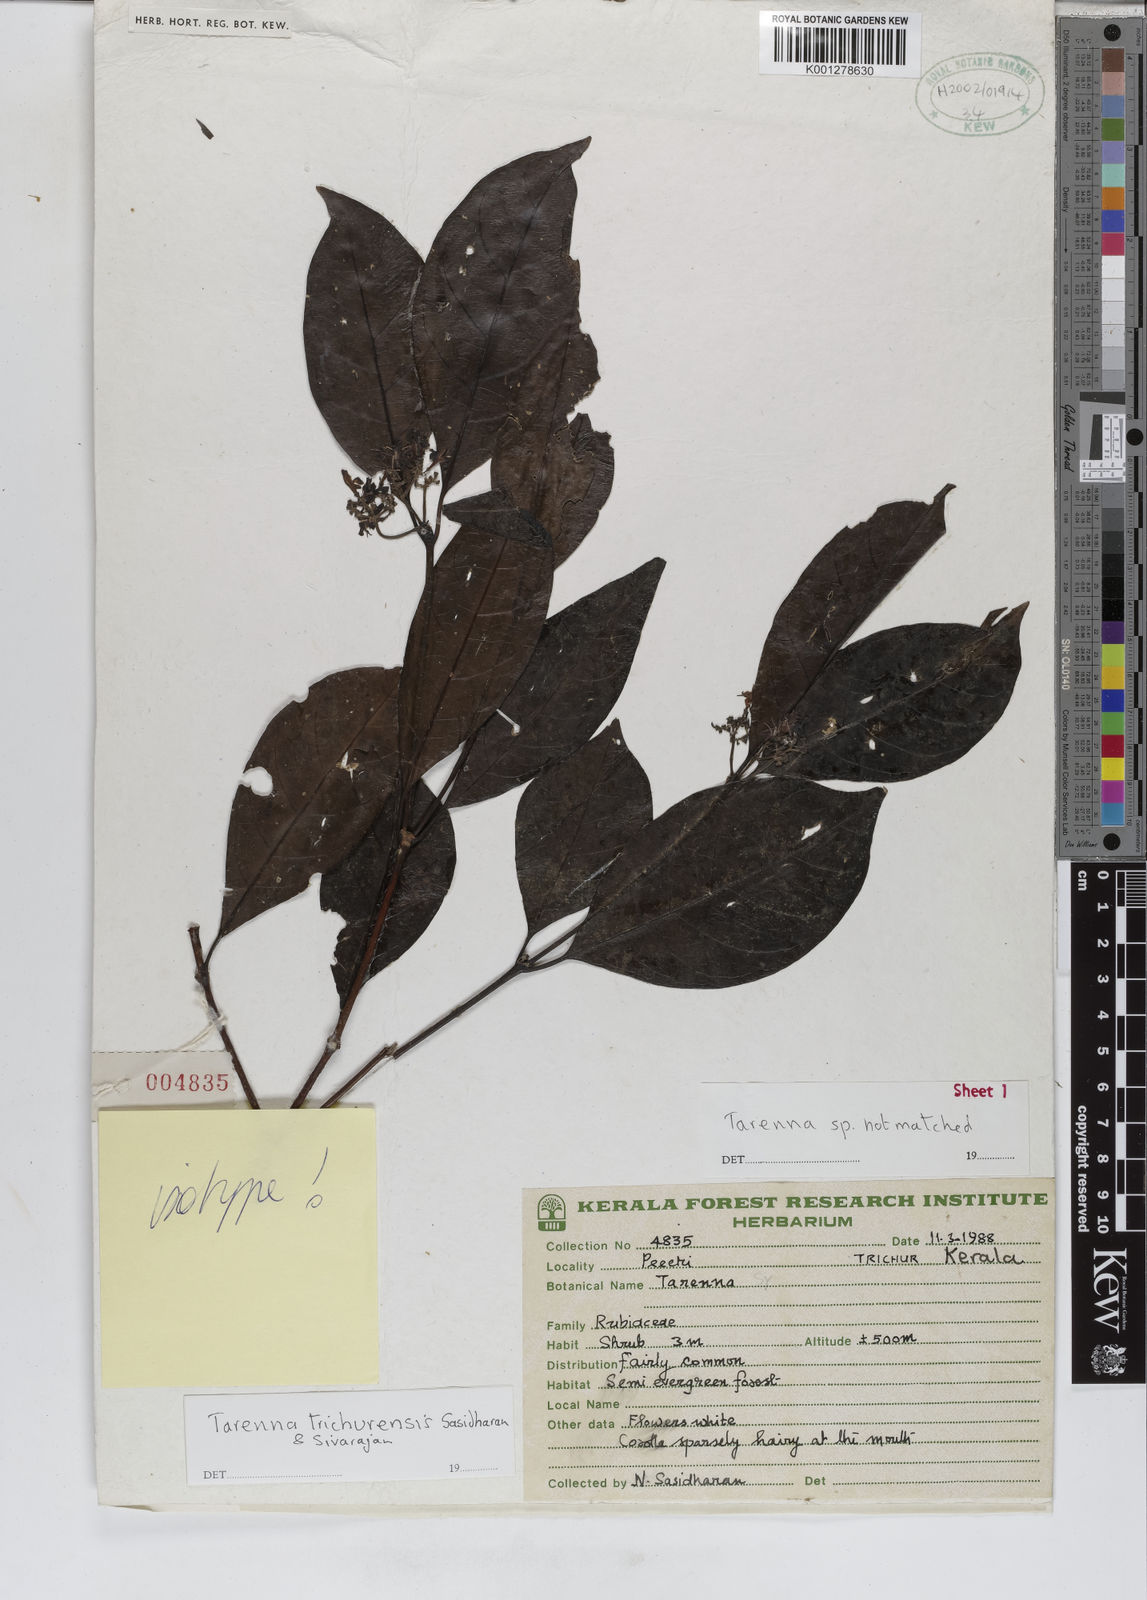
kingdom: Plantae
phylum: Tracheophyta
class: Magnoliopsida
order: Gentianales
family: Rubiaceae
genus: Tarenna
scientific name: Tarenna trichurensis
